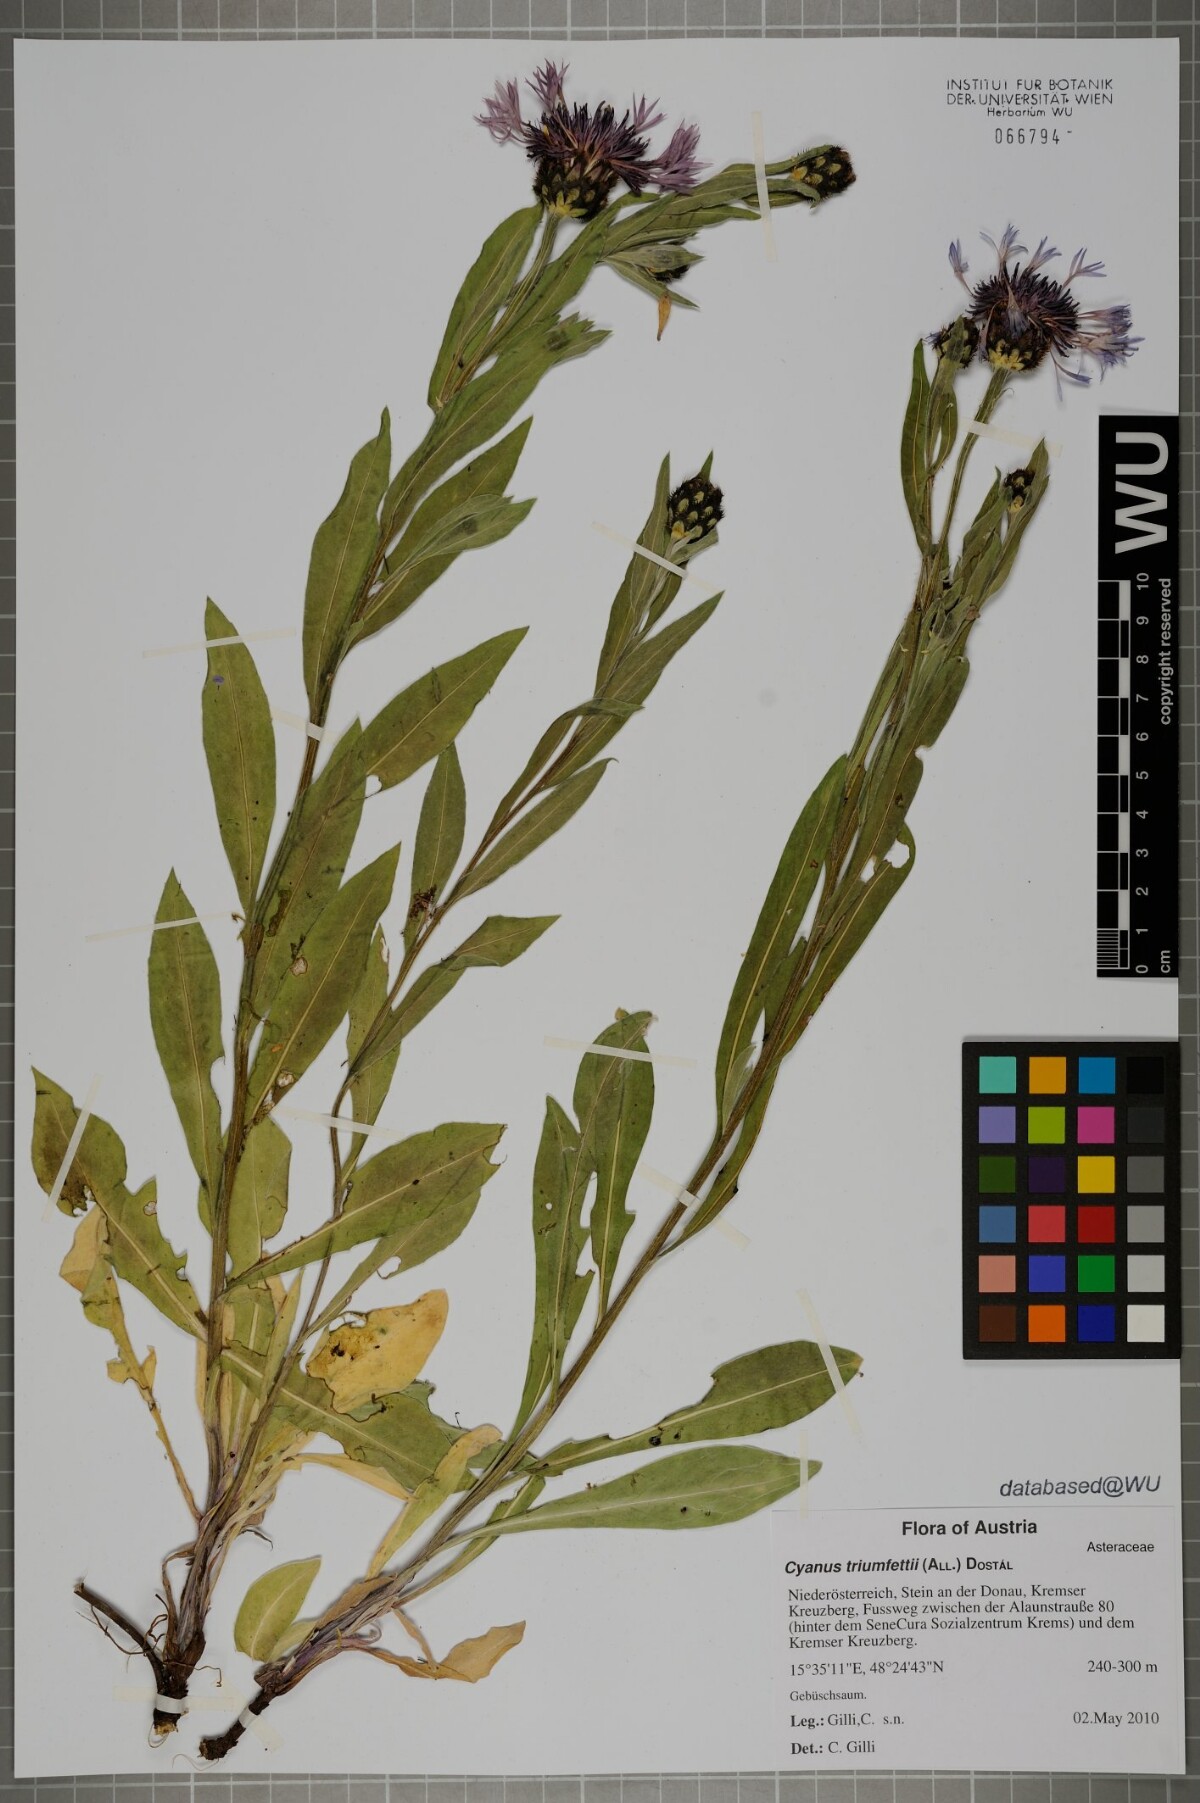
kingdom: Plantae
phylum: Tracheophyta
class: Magnoliopsida
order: Asterales
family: Asteraceae
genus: Centaurea
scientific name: Centaurea triumfettii
